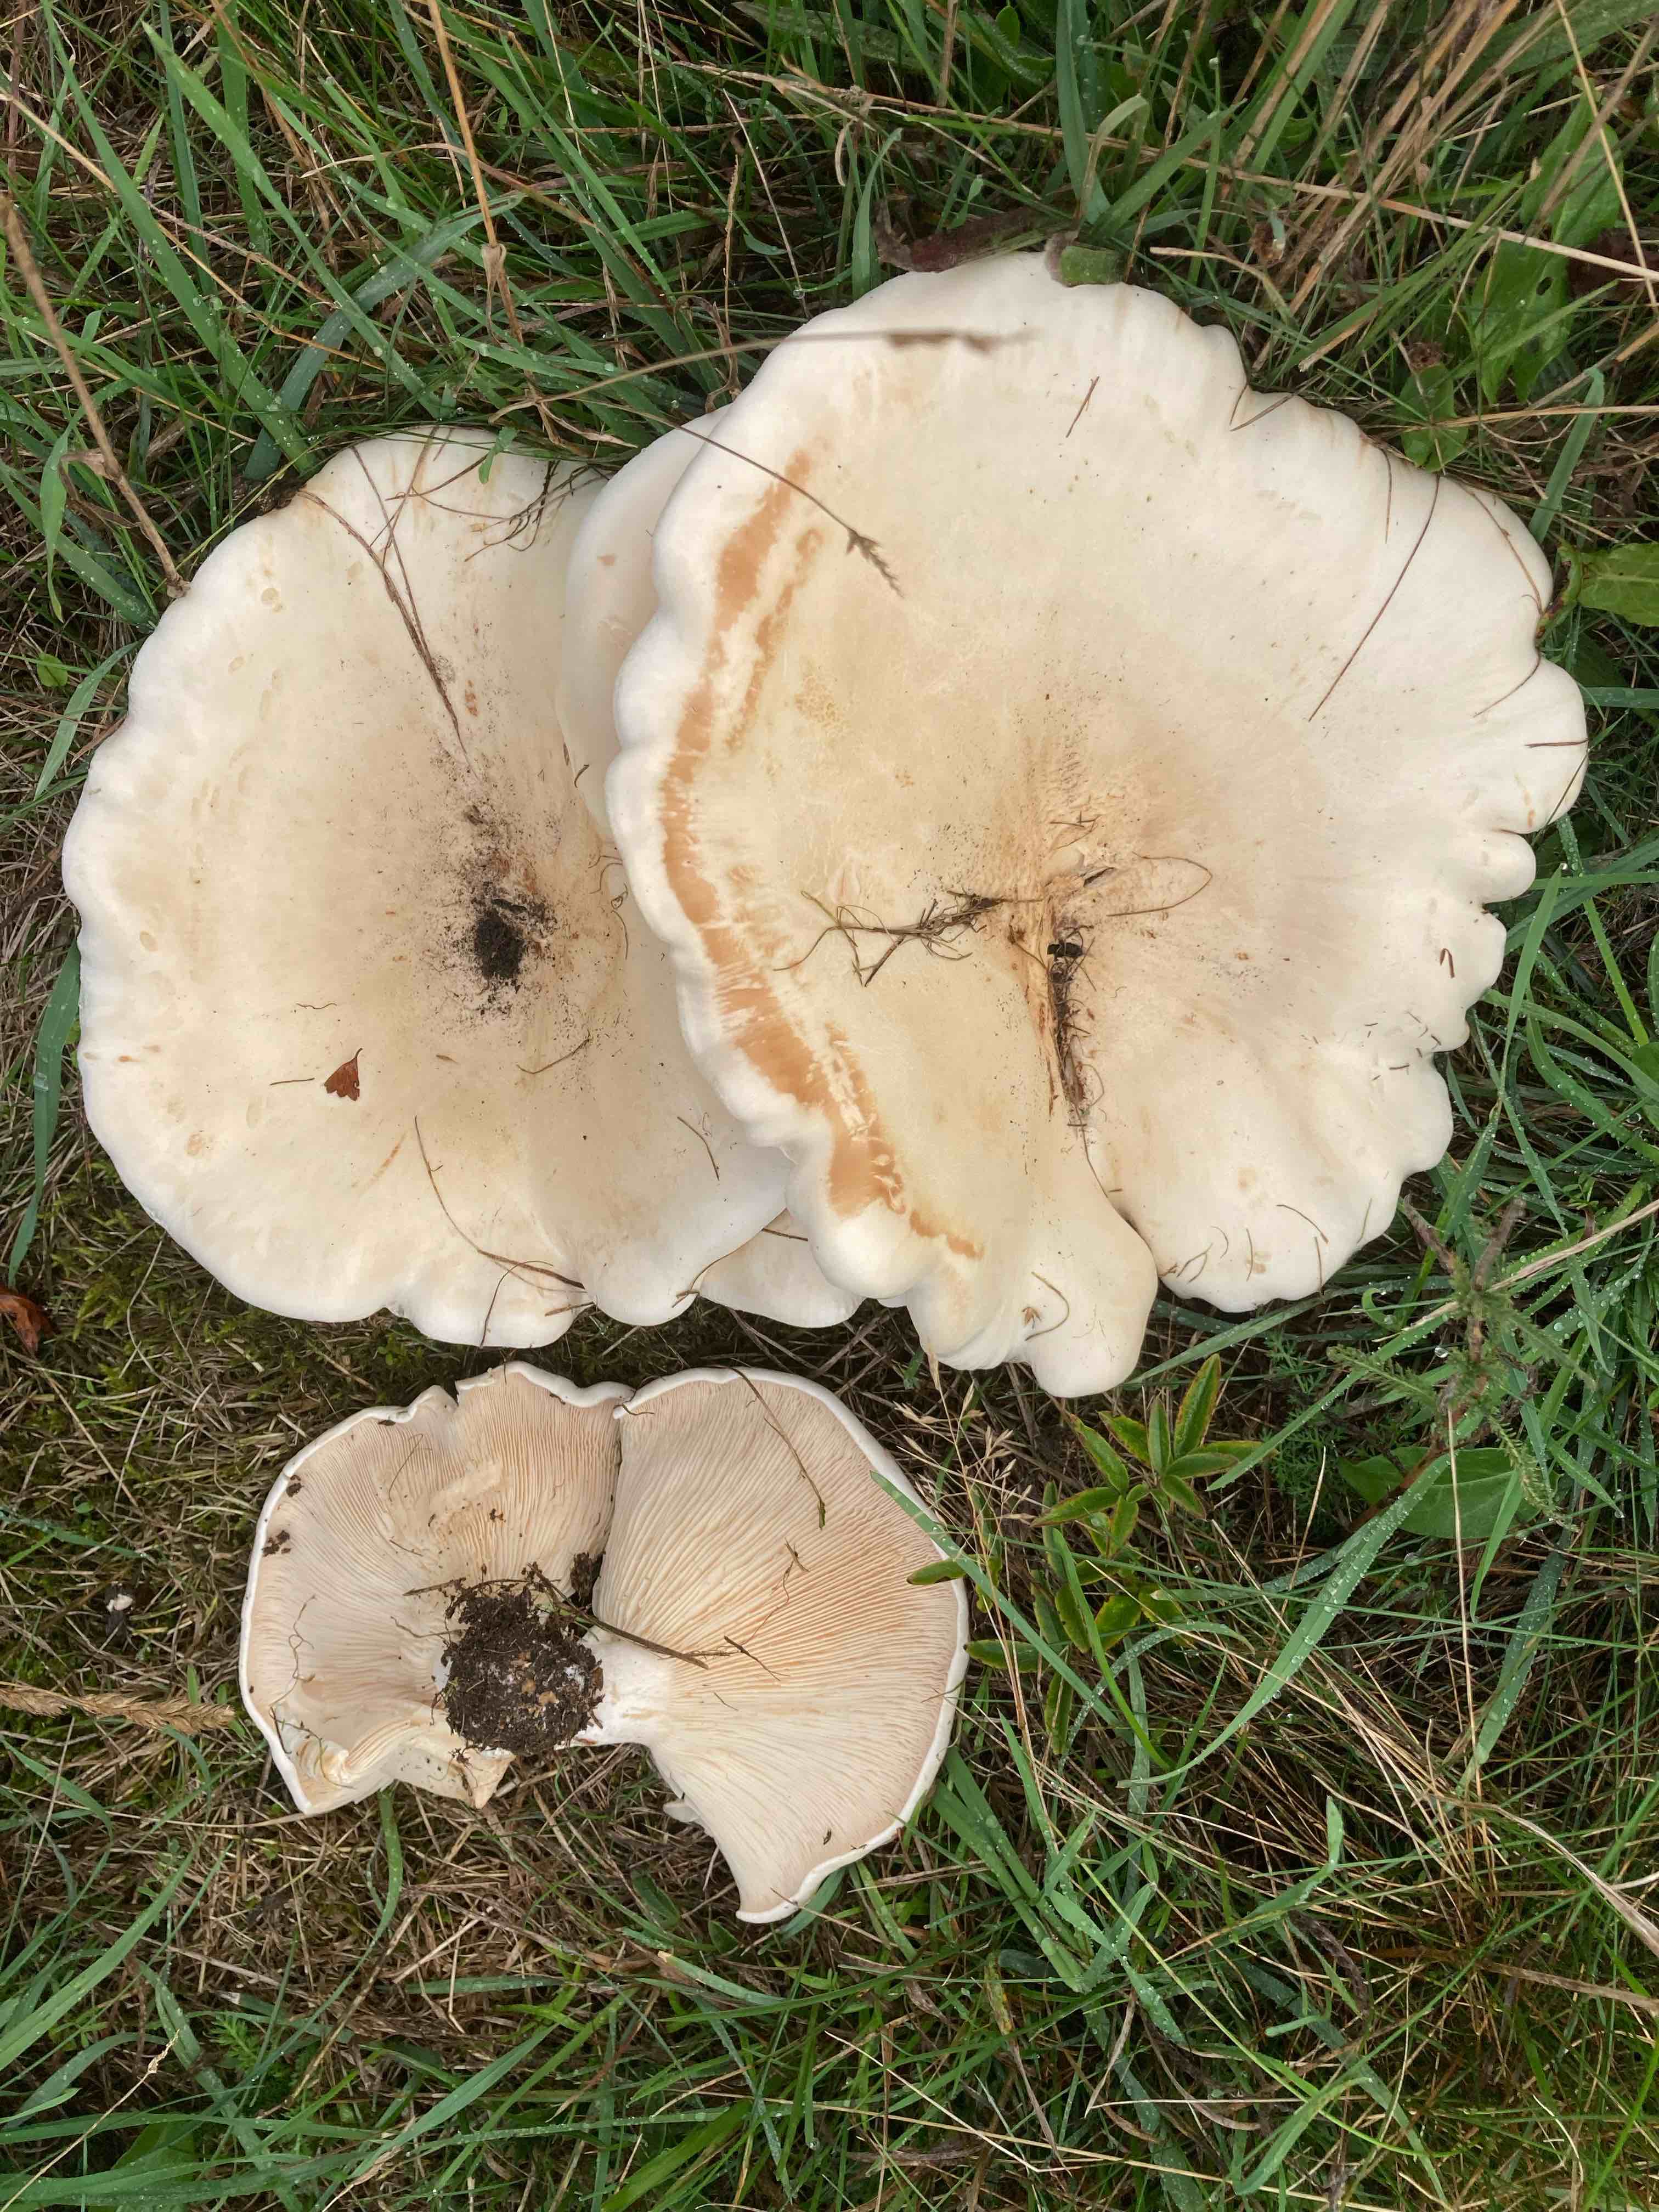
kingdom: Fungi
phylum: Basidiomycota
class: Agaricomycetes
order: Agaricales
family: Tricholomataceae
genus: Aspropaxillus
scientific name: Aspropaxillus giganteus
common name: kæmpe-tragtridderhat
